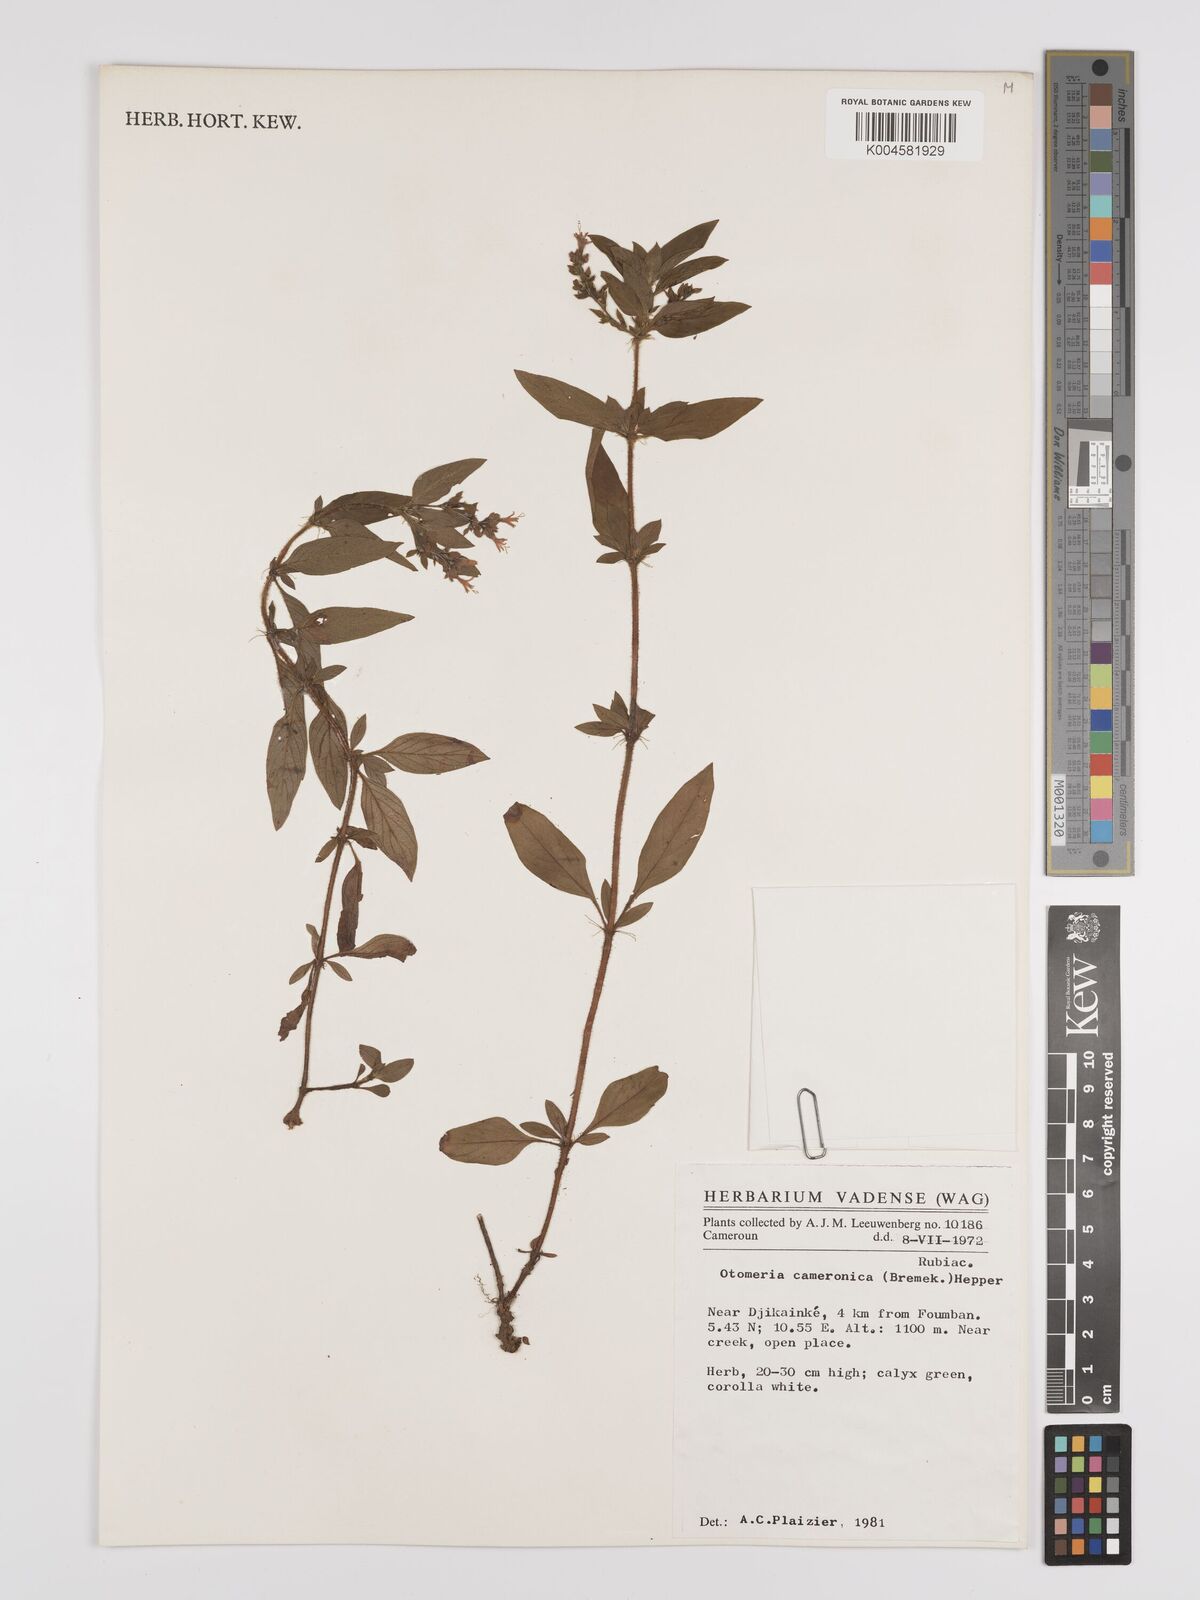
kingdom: Plantae
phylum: Tracheophyta
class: Magnoliopsida
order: Gentianales
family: Rubiaceae
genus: Otomeria
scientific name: Otomeria cameronica
